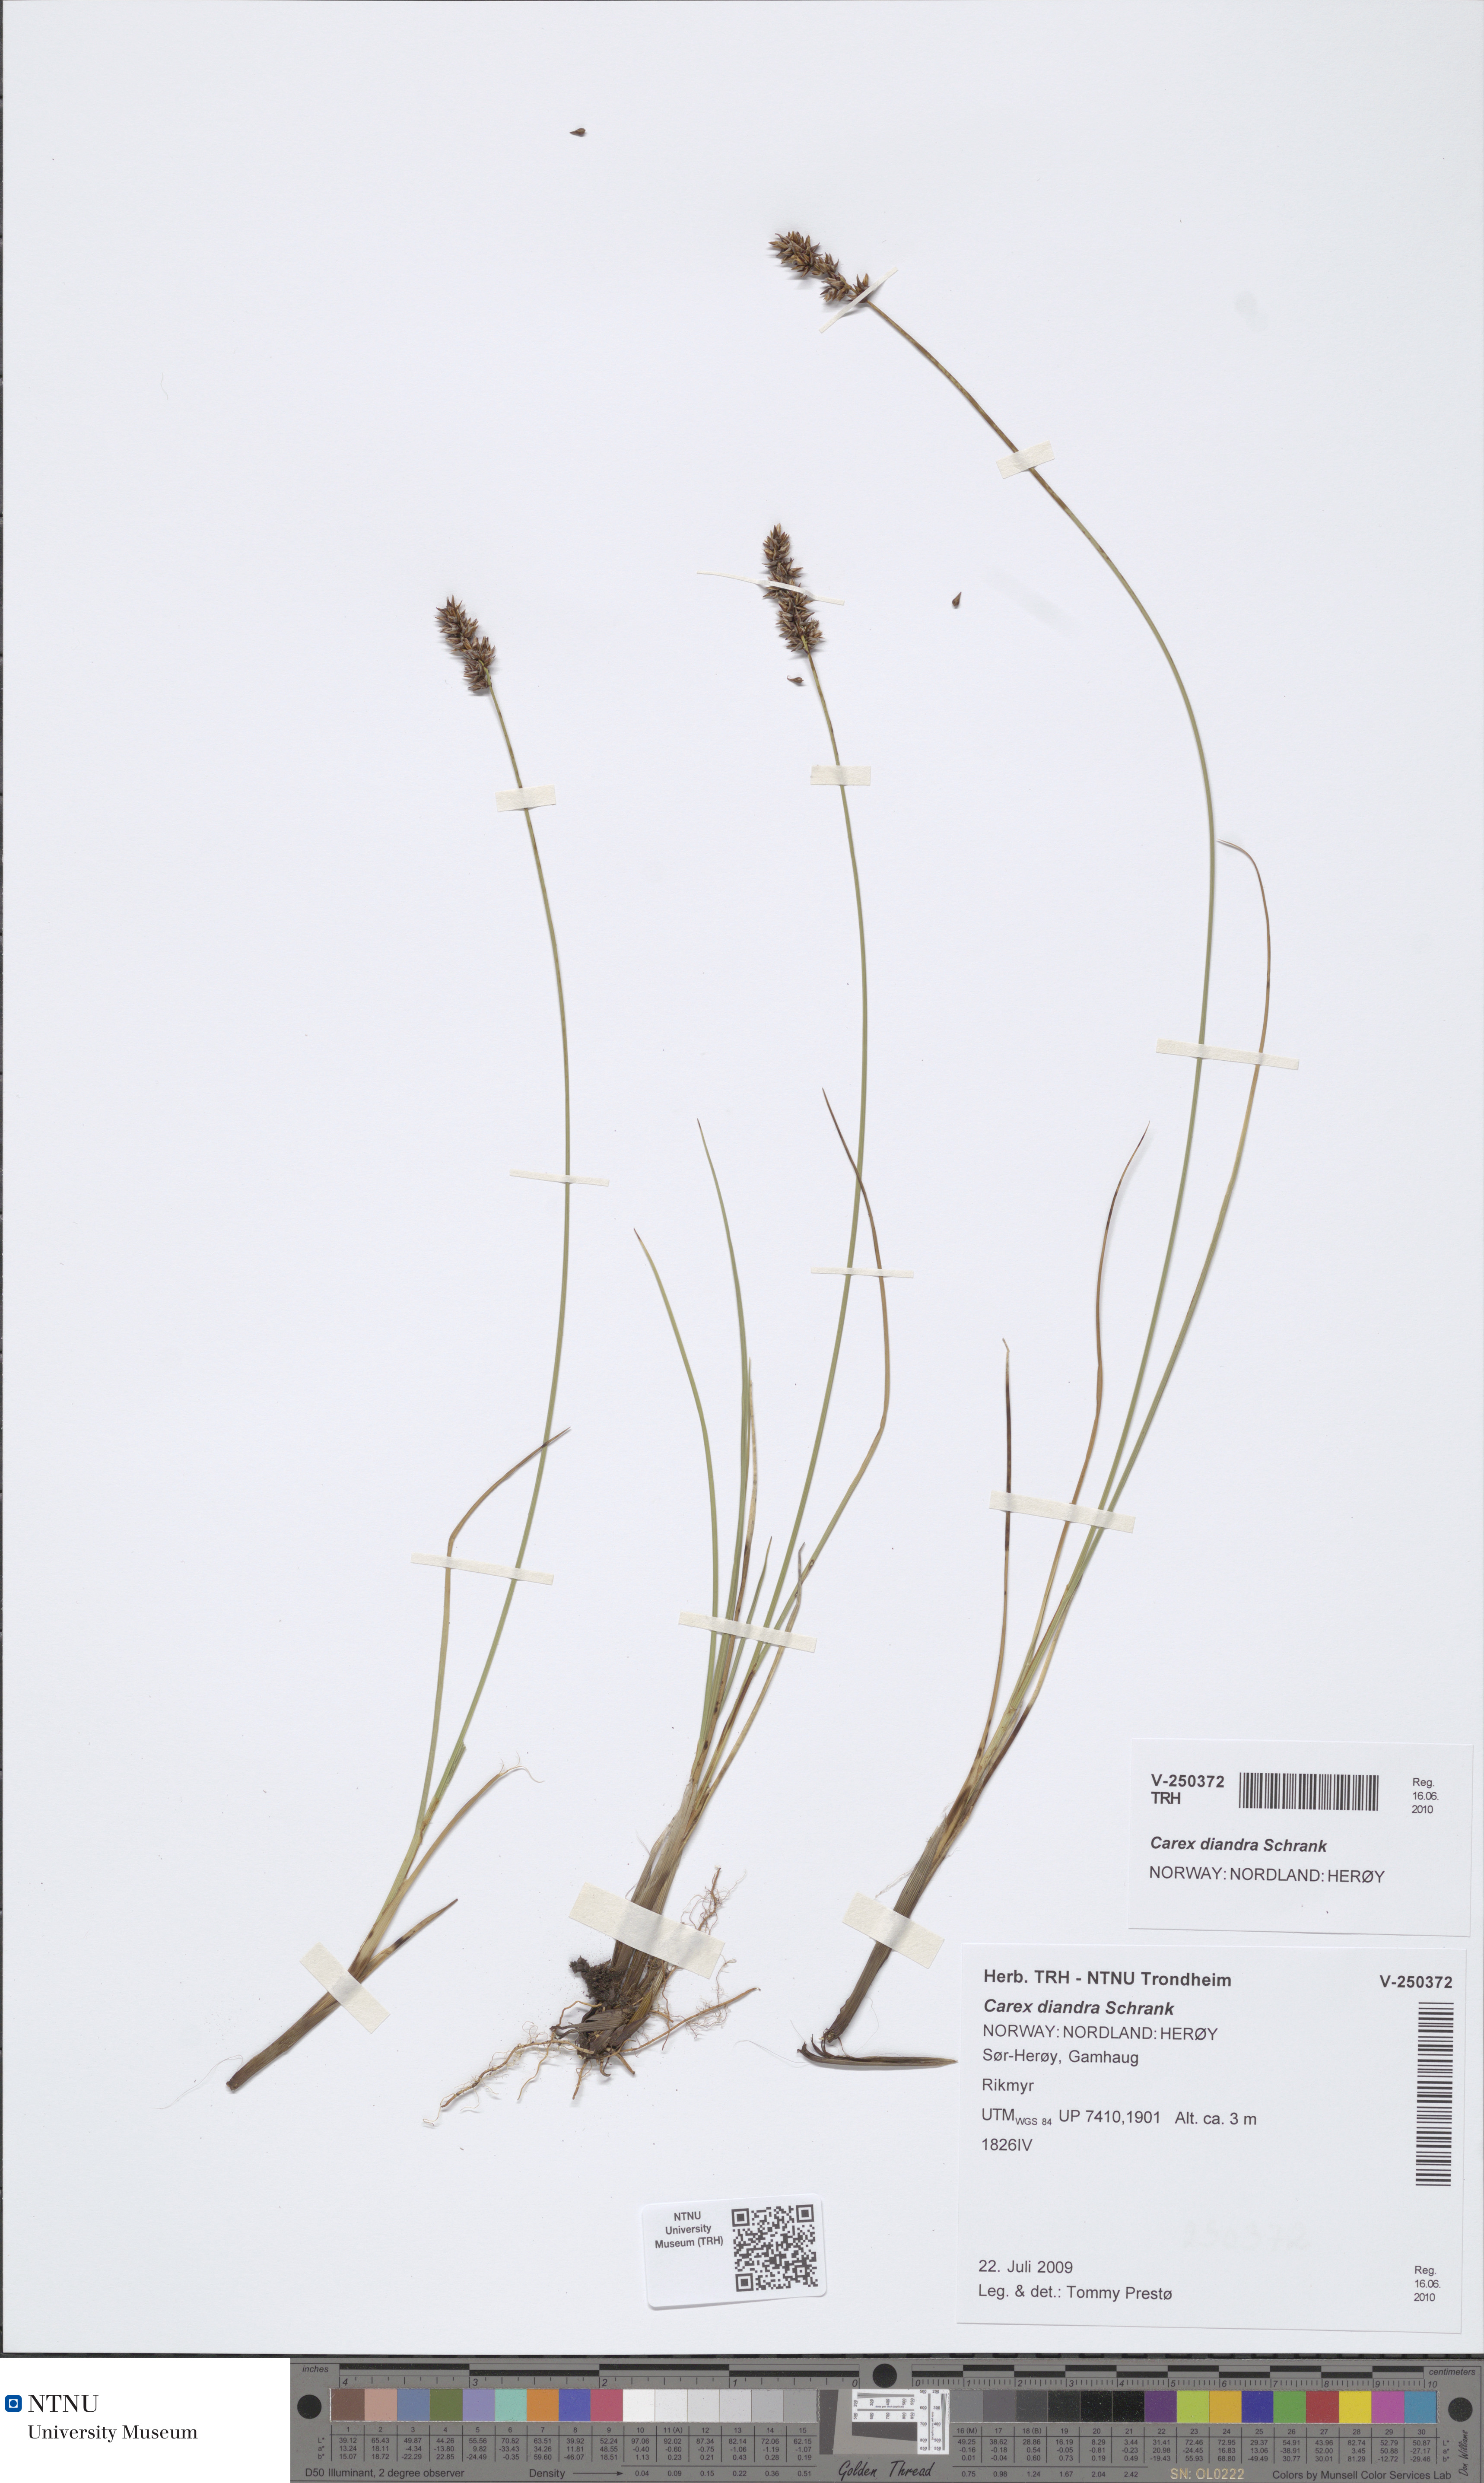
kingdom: Plantae
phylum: Tracheophyta
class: Liliopsida
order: Poales
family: Cyperaceae
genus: Carex
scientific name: Carex diandra
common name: Lesser tussock-sedge
